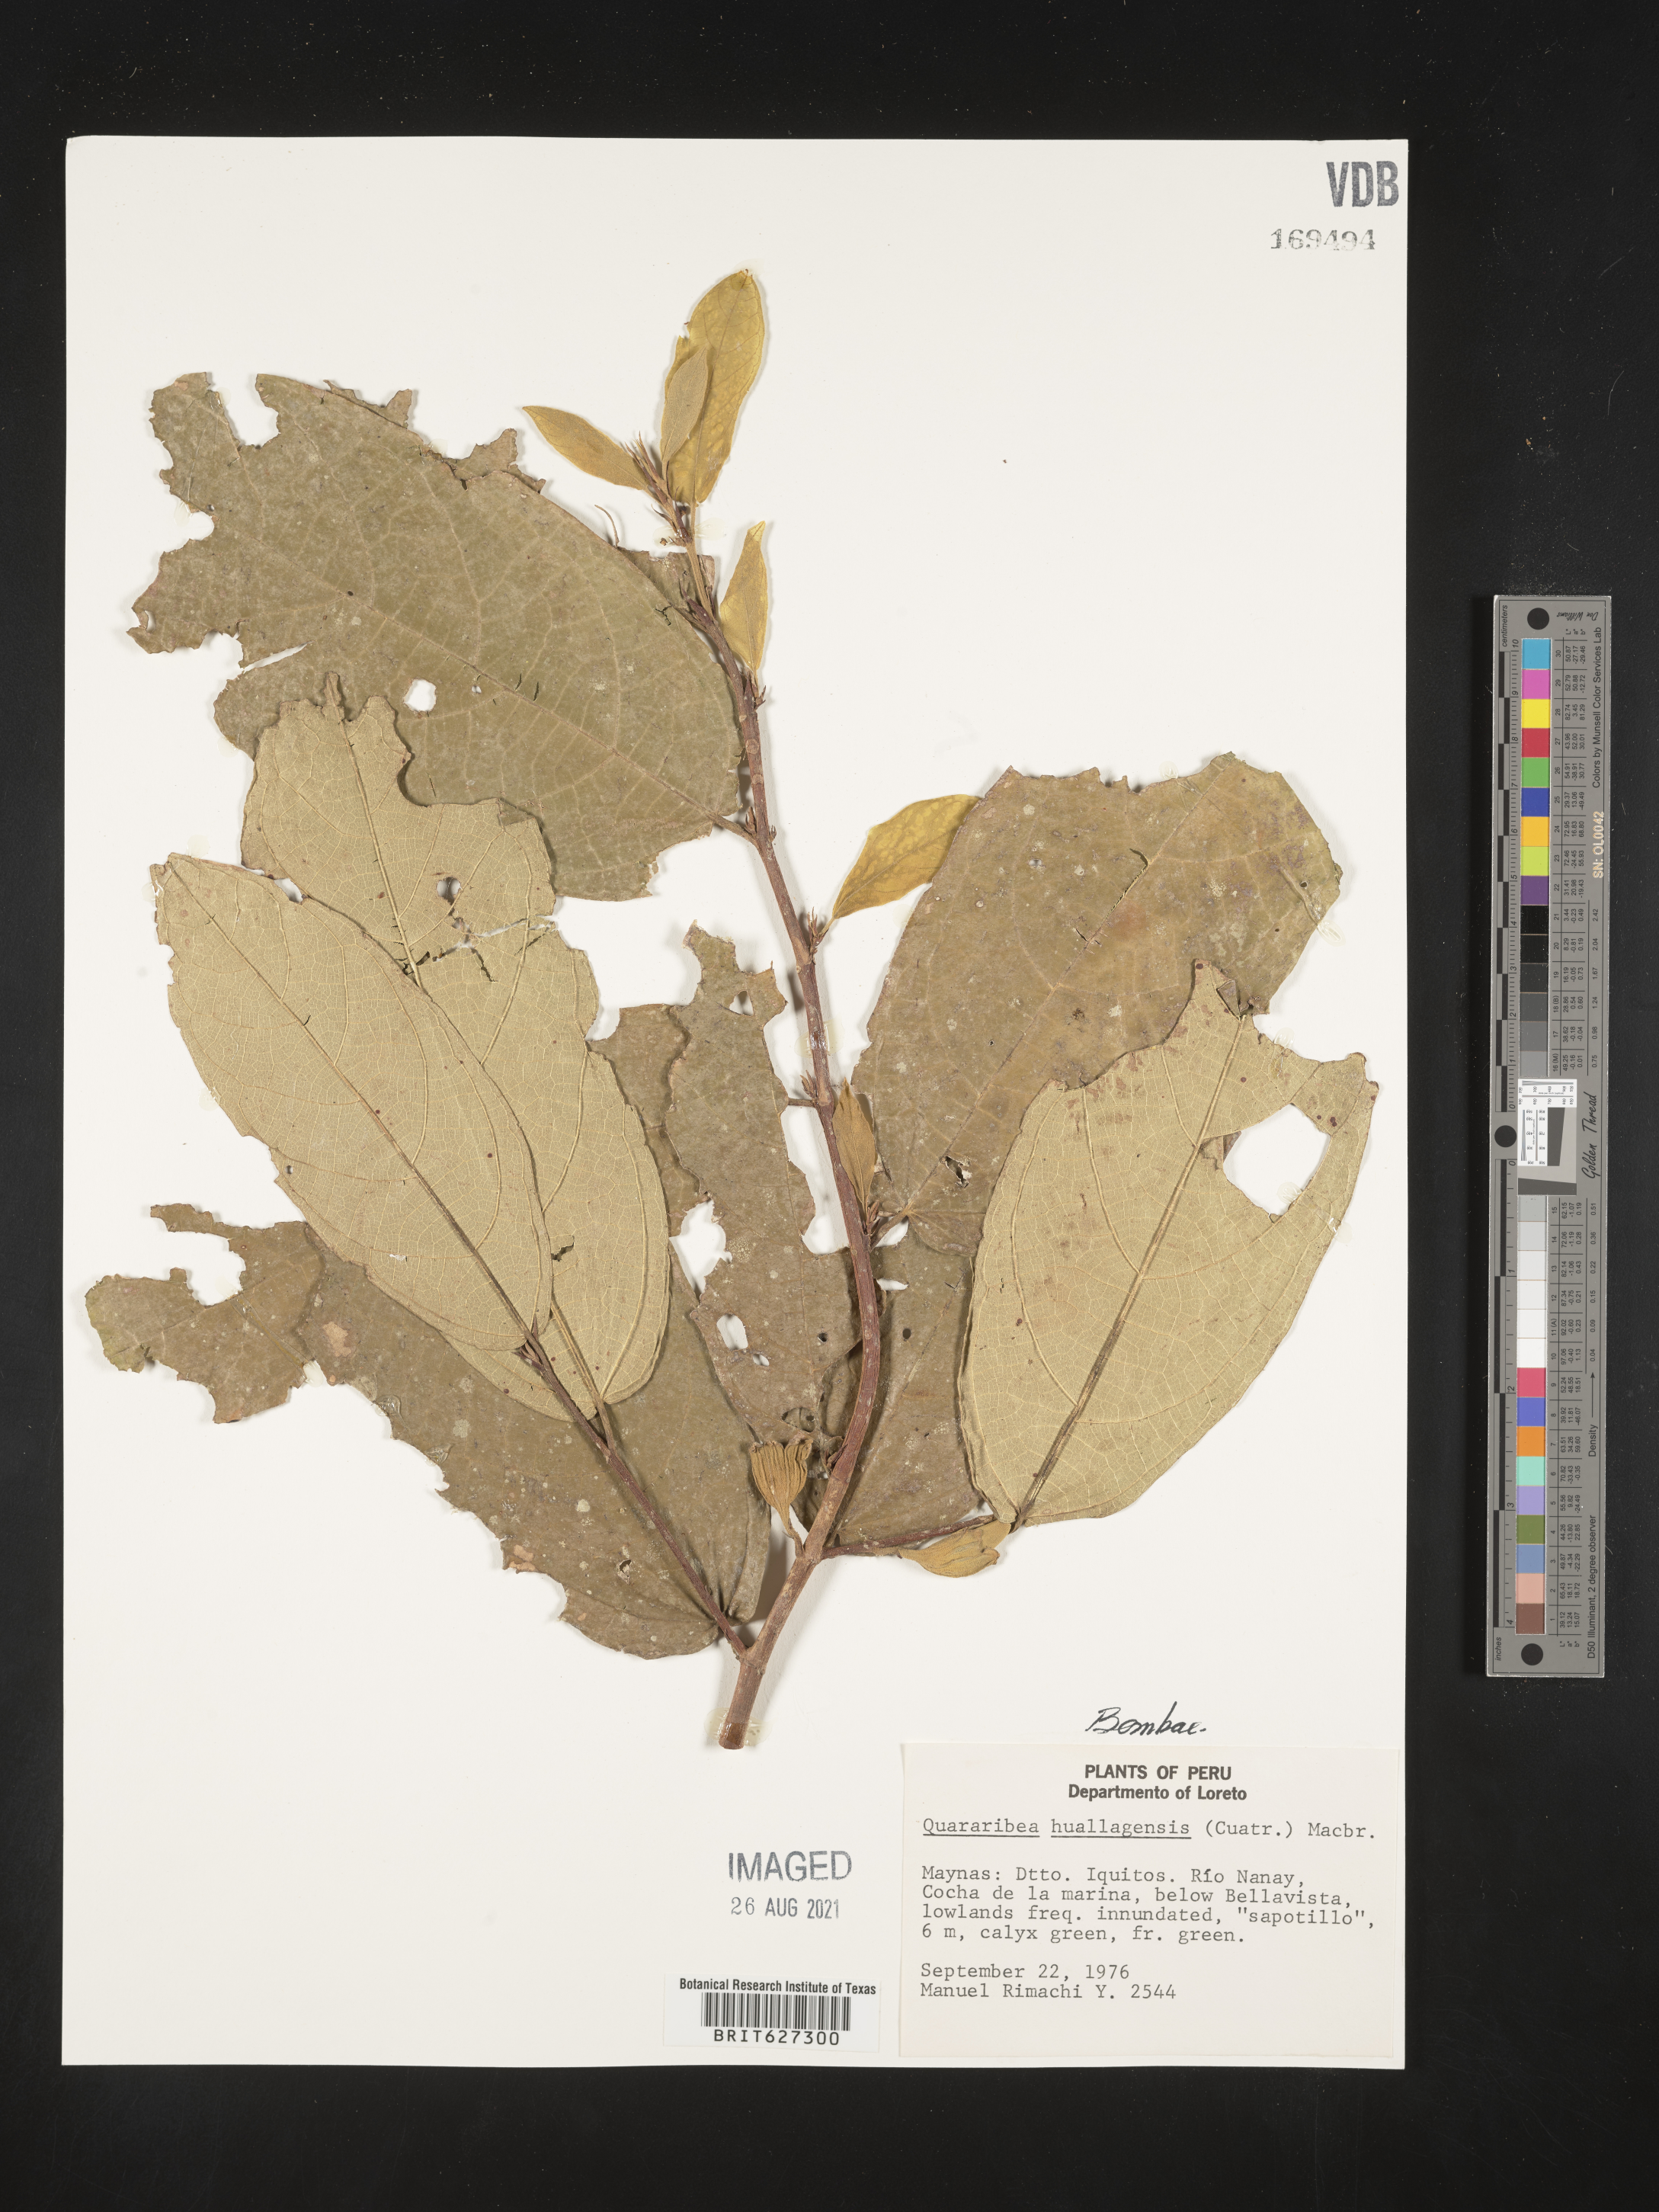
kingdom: Plantae
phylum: Tracheophyta
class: Magnoliopsida
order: Malvales
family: Malvaceae
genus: Quararibea
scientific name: Quararibea
